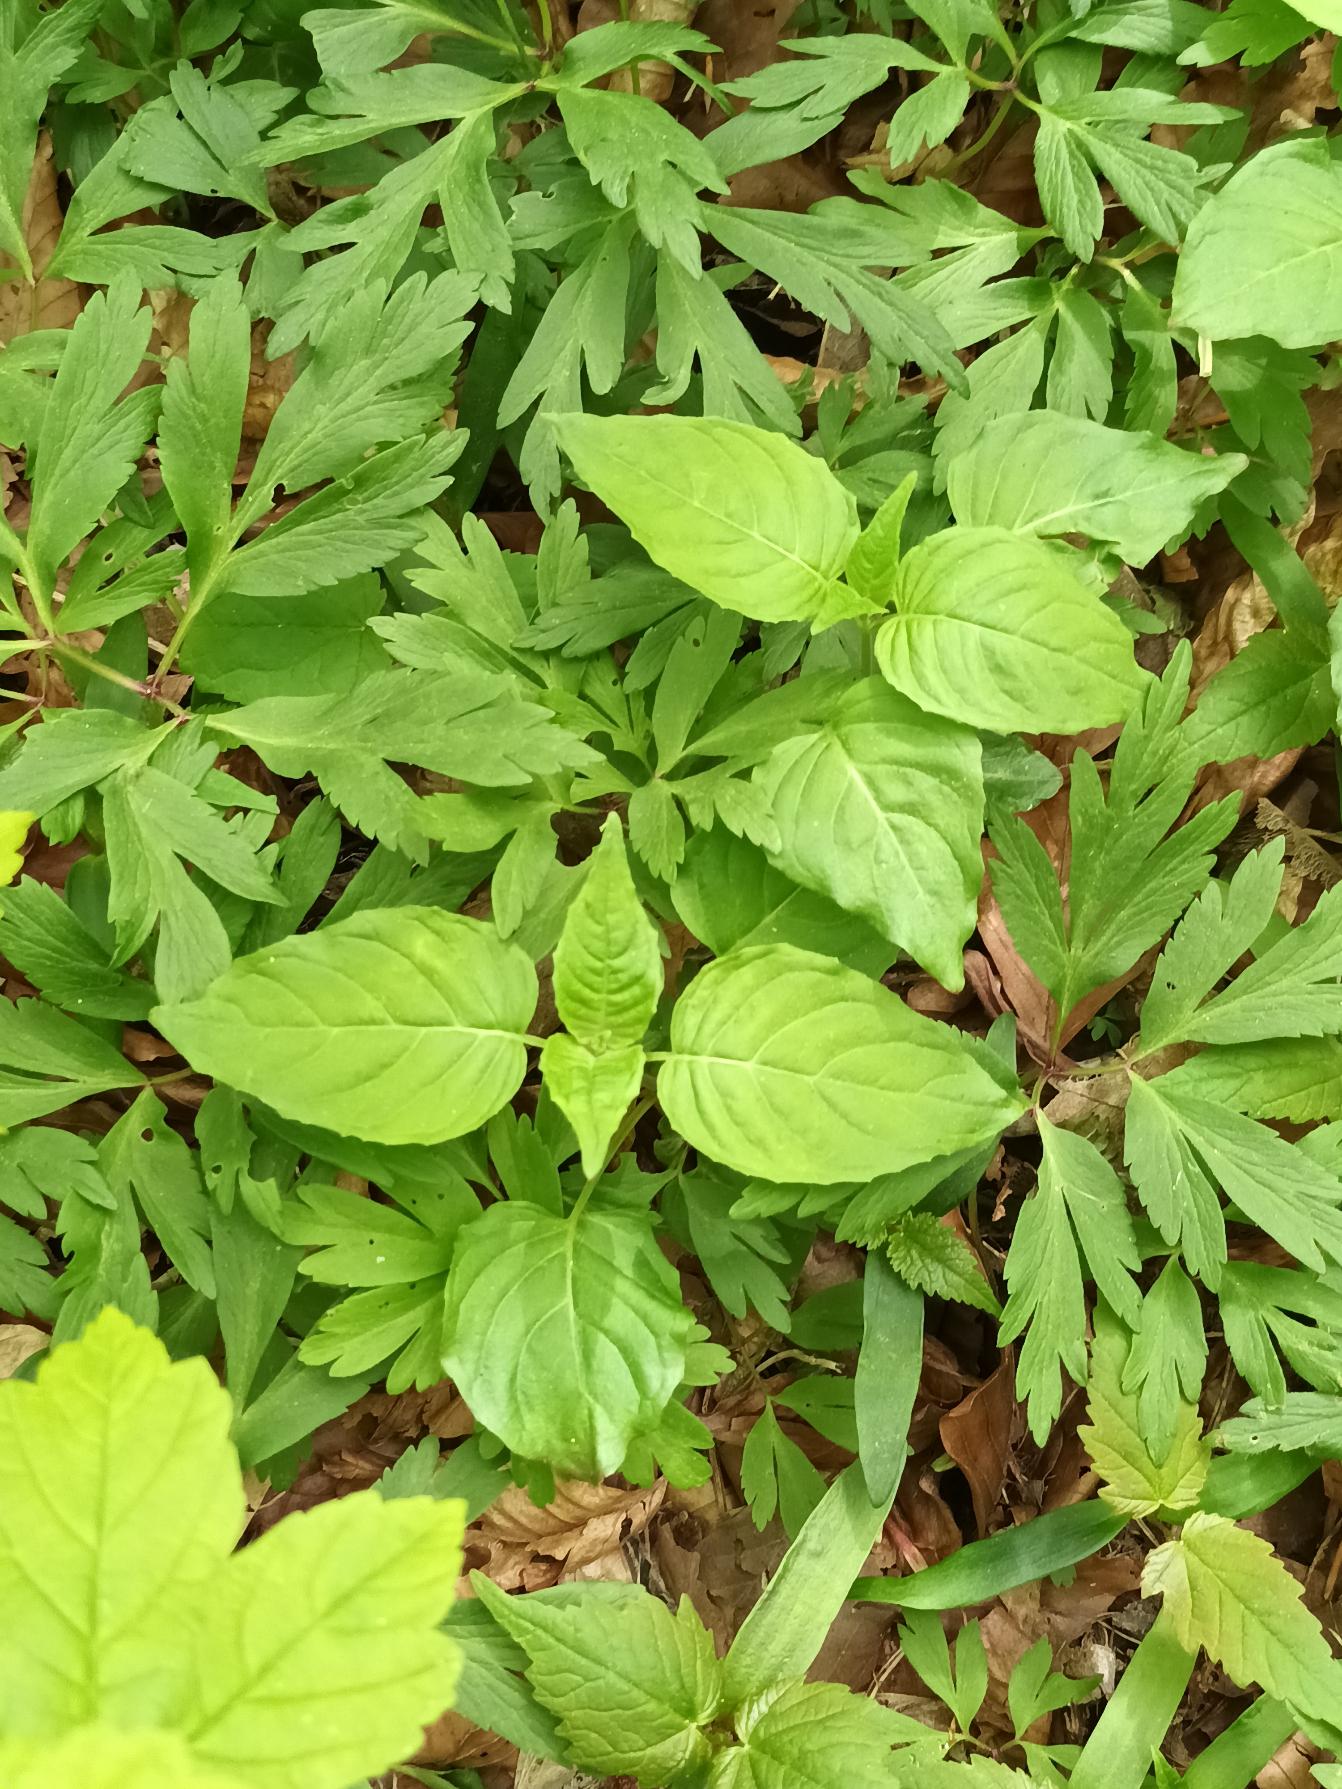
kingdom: Plantae
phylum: Tracheophyta
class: Magnoliopsida
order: Myrtales
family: Onagraceae
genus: Circaea
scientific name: Circaea lutetiana
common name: Dunet steffensurt
